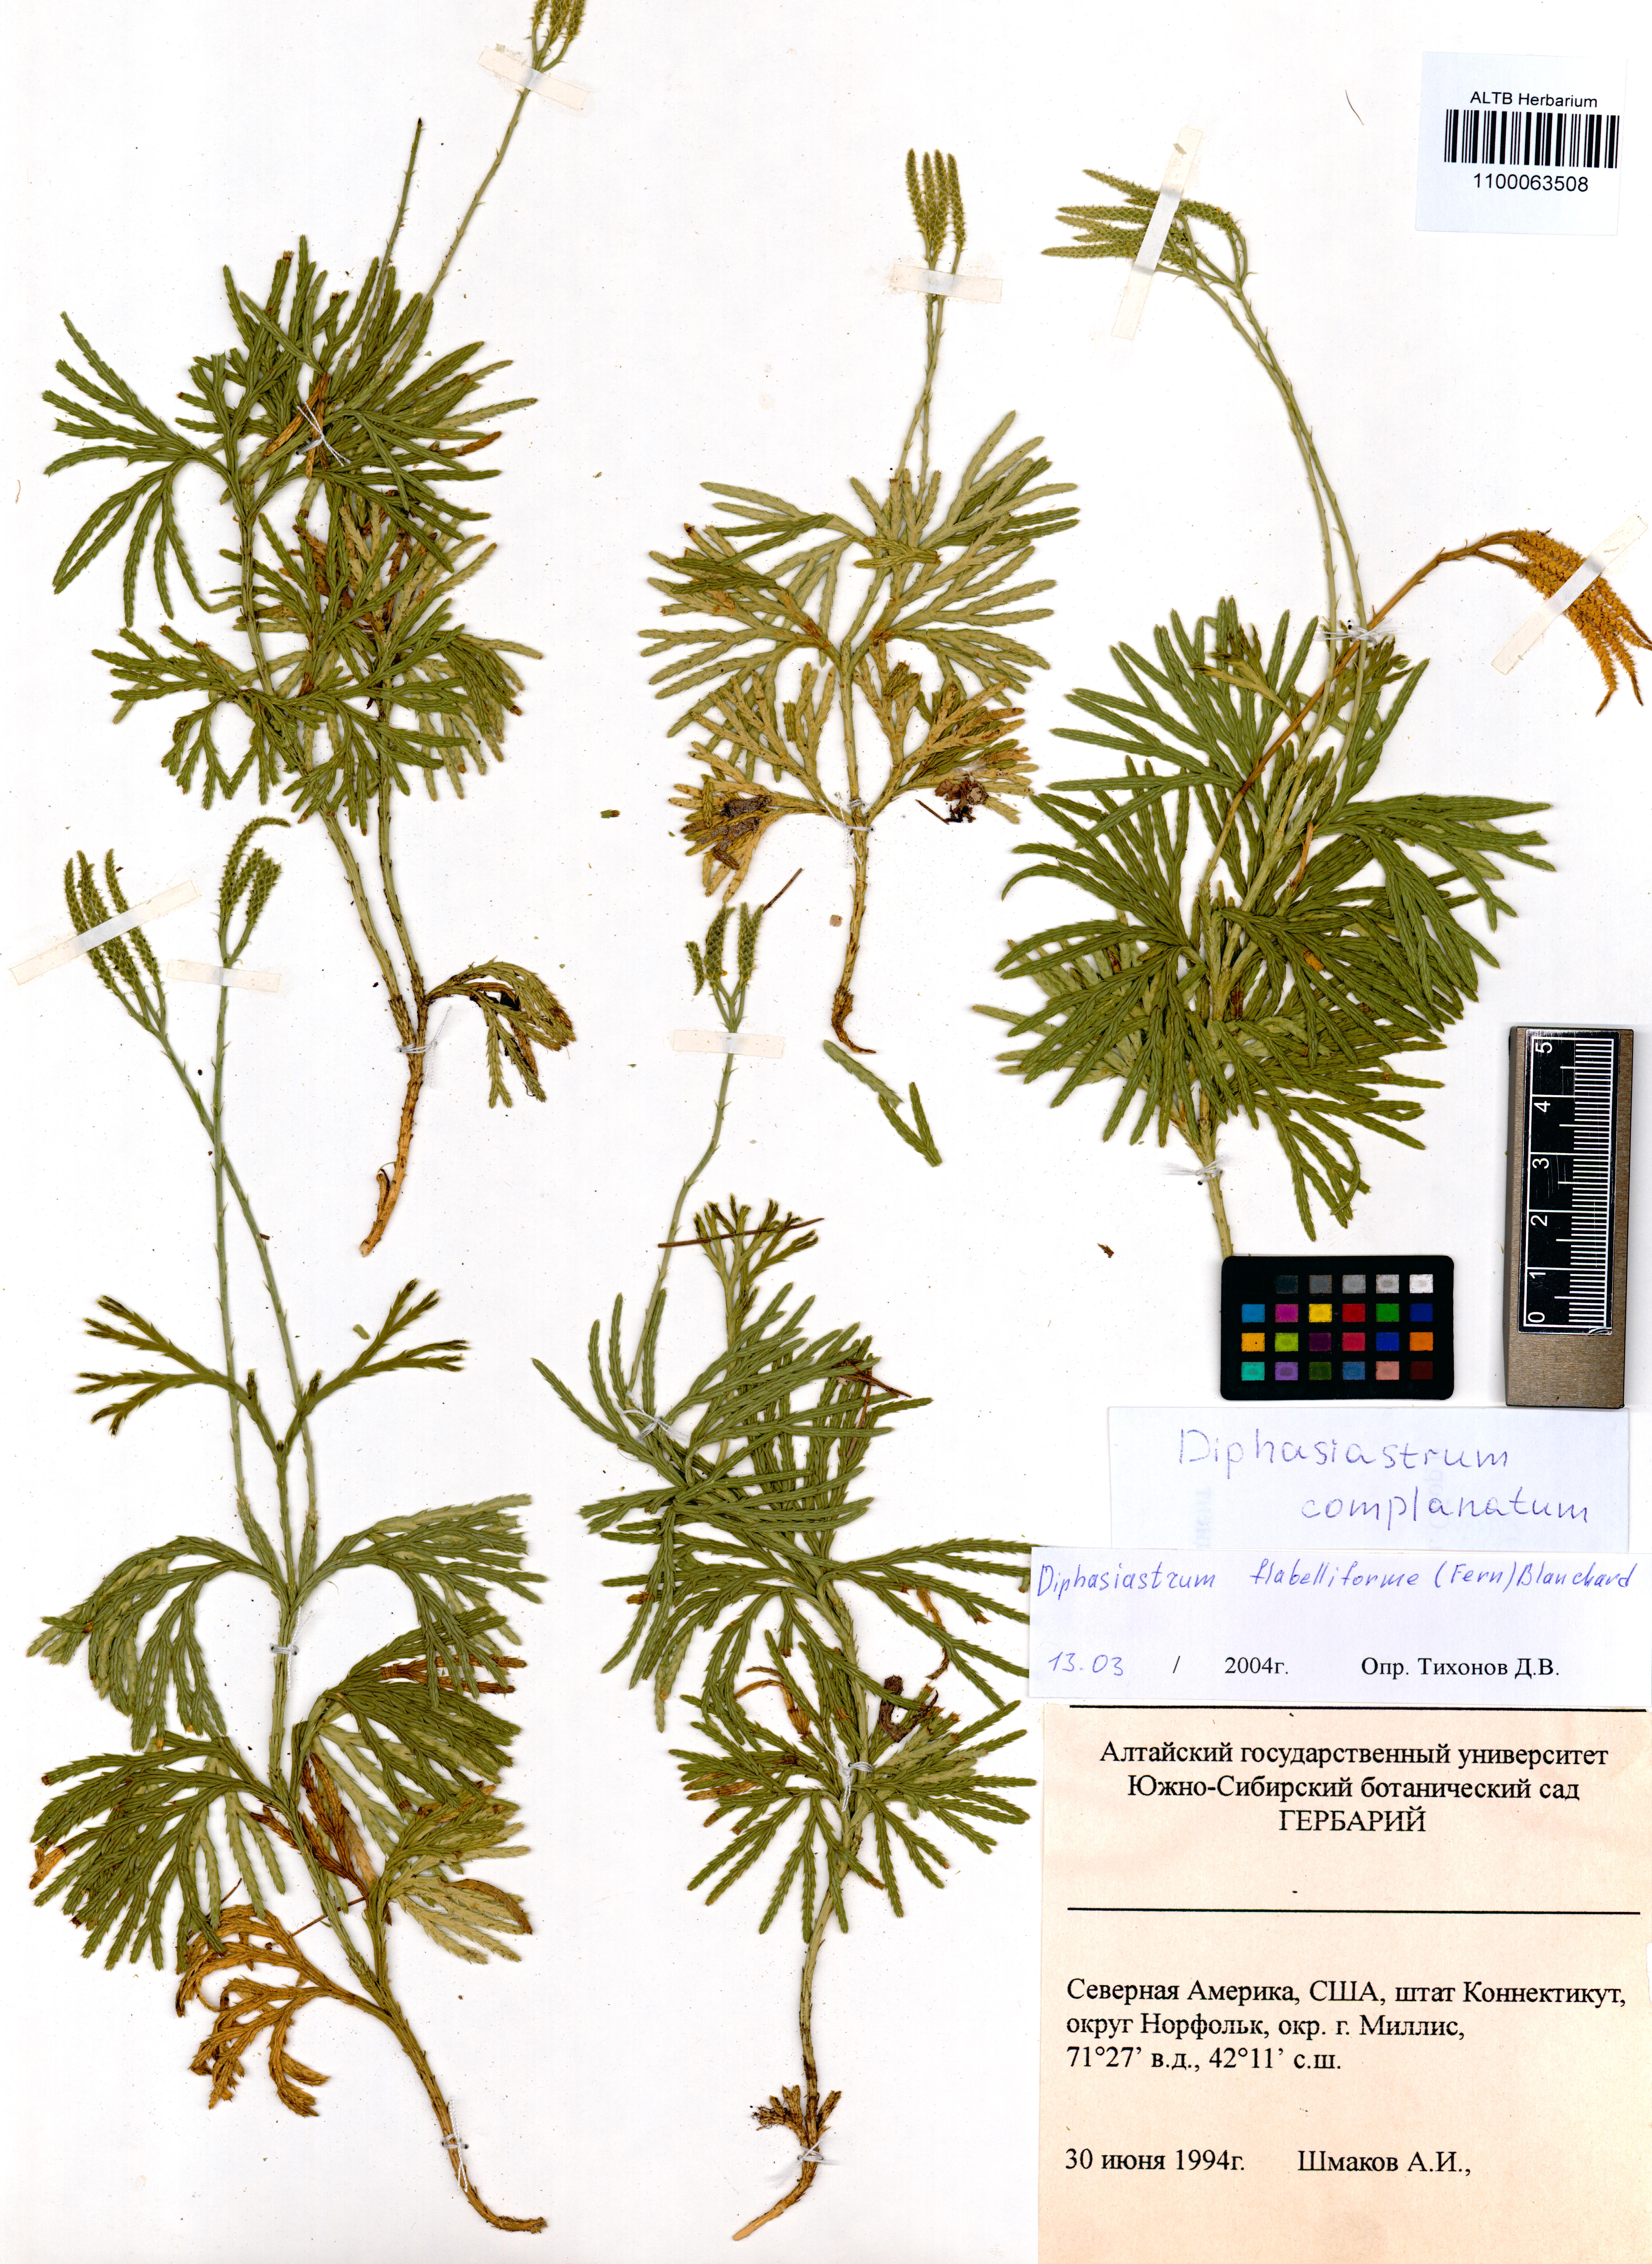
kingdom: Plantae
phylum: Tracheophyta
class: Lycopodiopsida
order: Lycopodiales
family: Lycopodiaceae
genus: Diphasiastrum
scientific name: Diphasiastrum complanatum
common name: Northern running-pine
